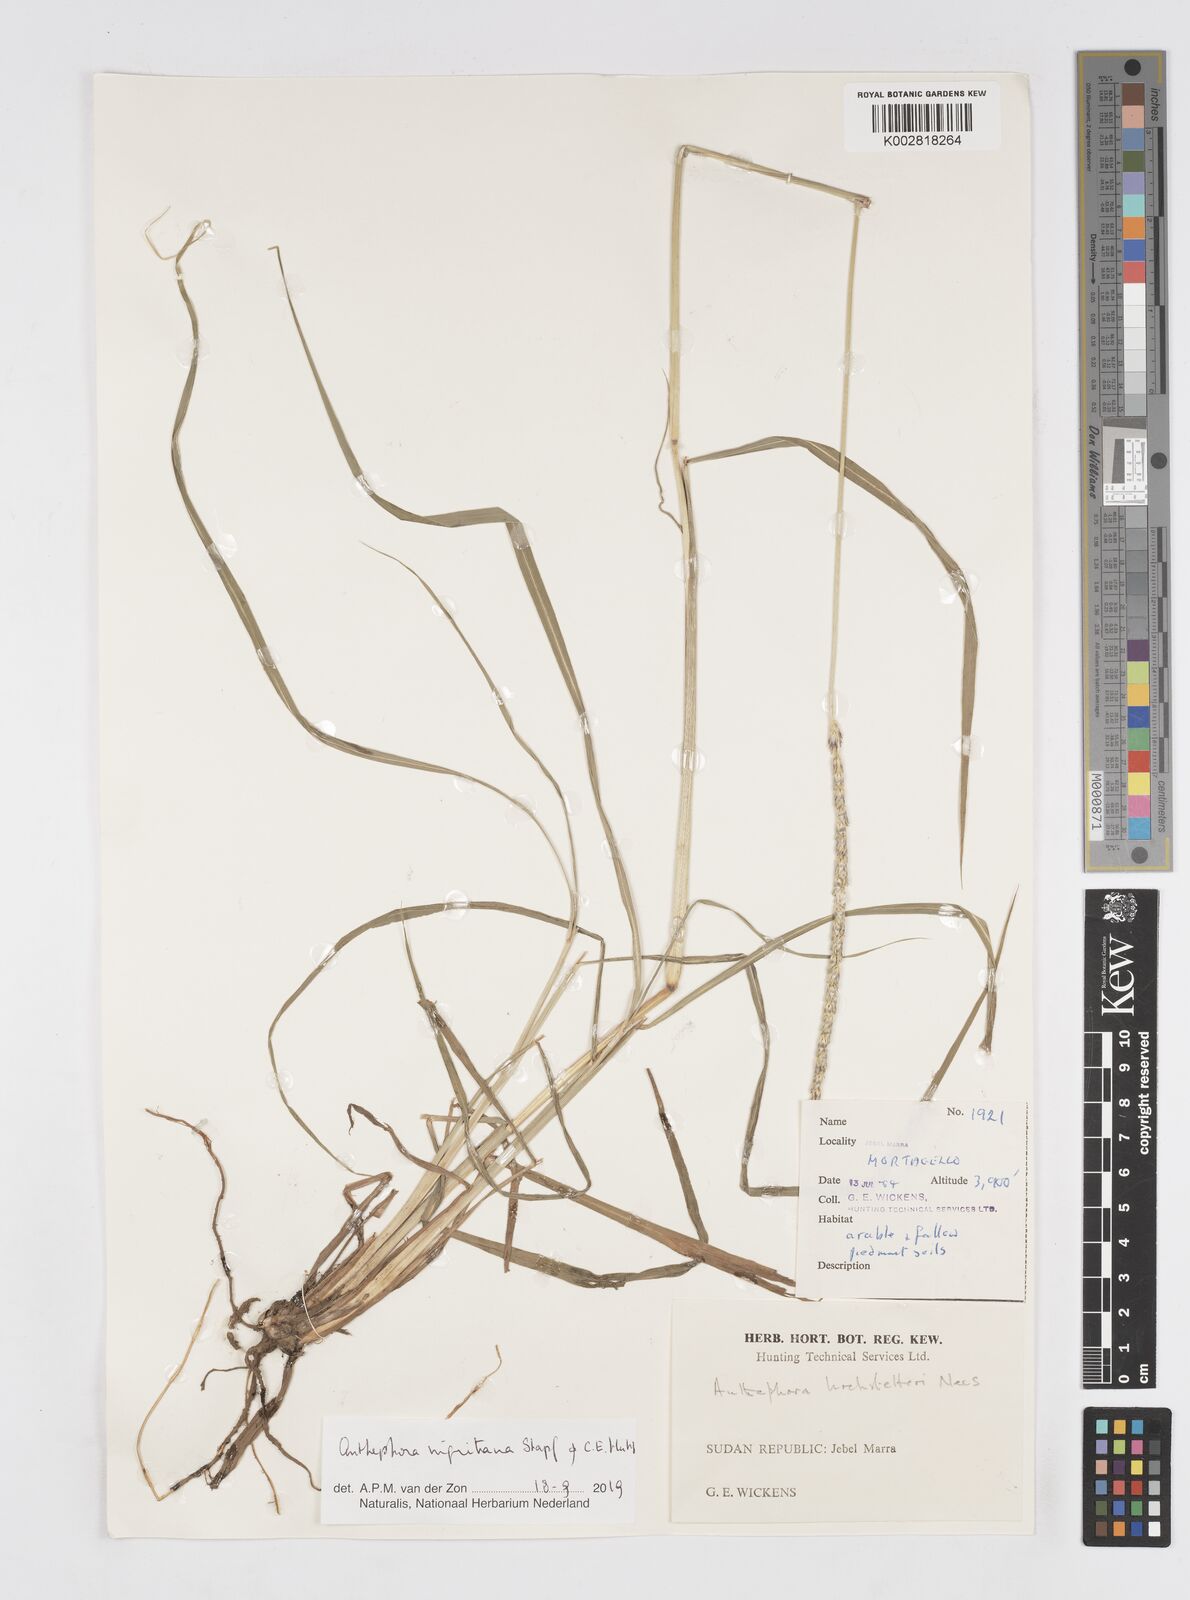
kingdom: Plantae
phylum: Tracheophyta
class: Liliopsida
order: Poales
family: Poaceae
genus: Anthephora
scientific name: Anthephora nigritana
